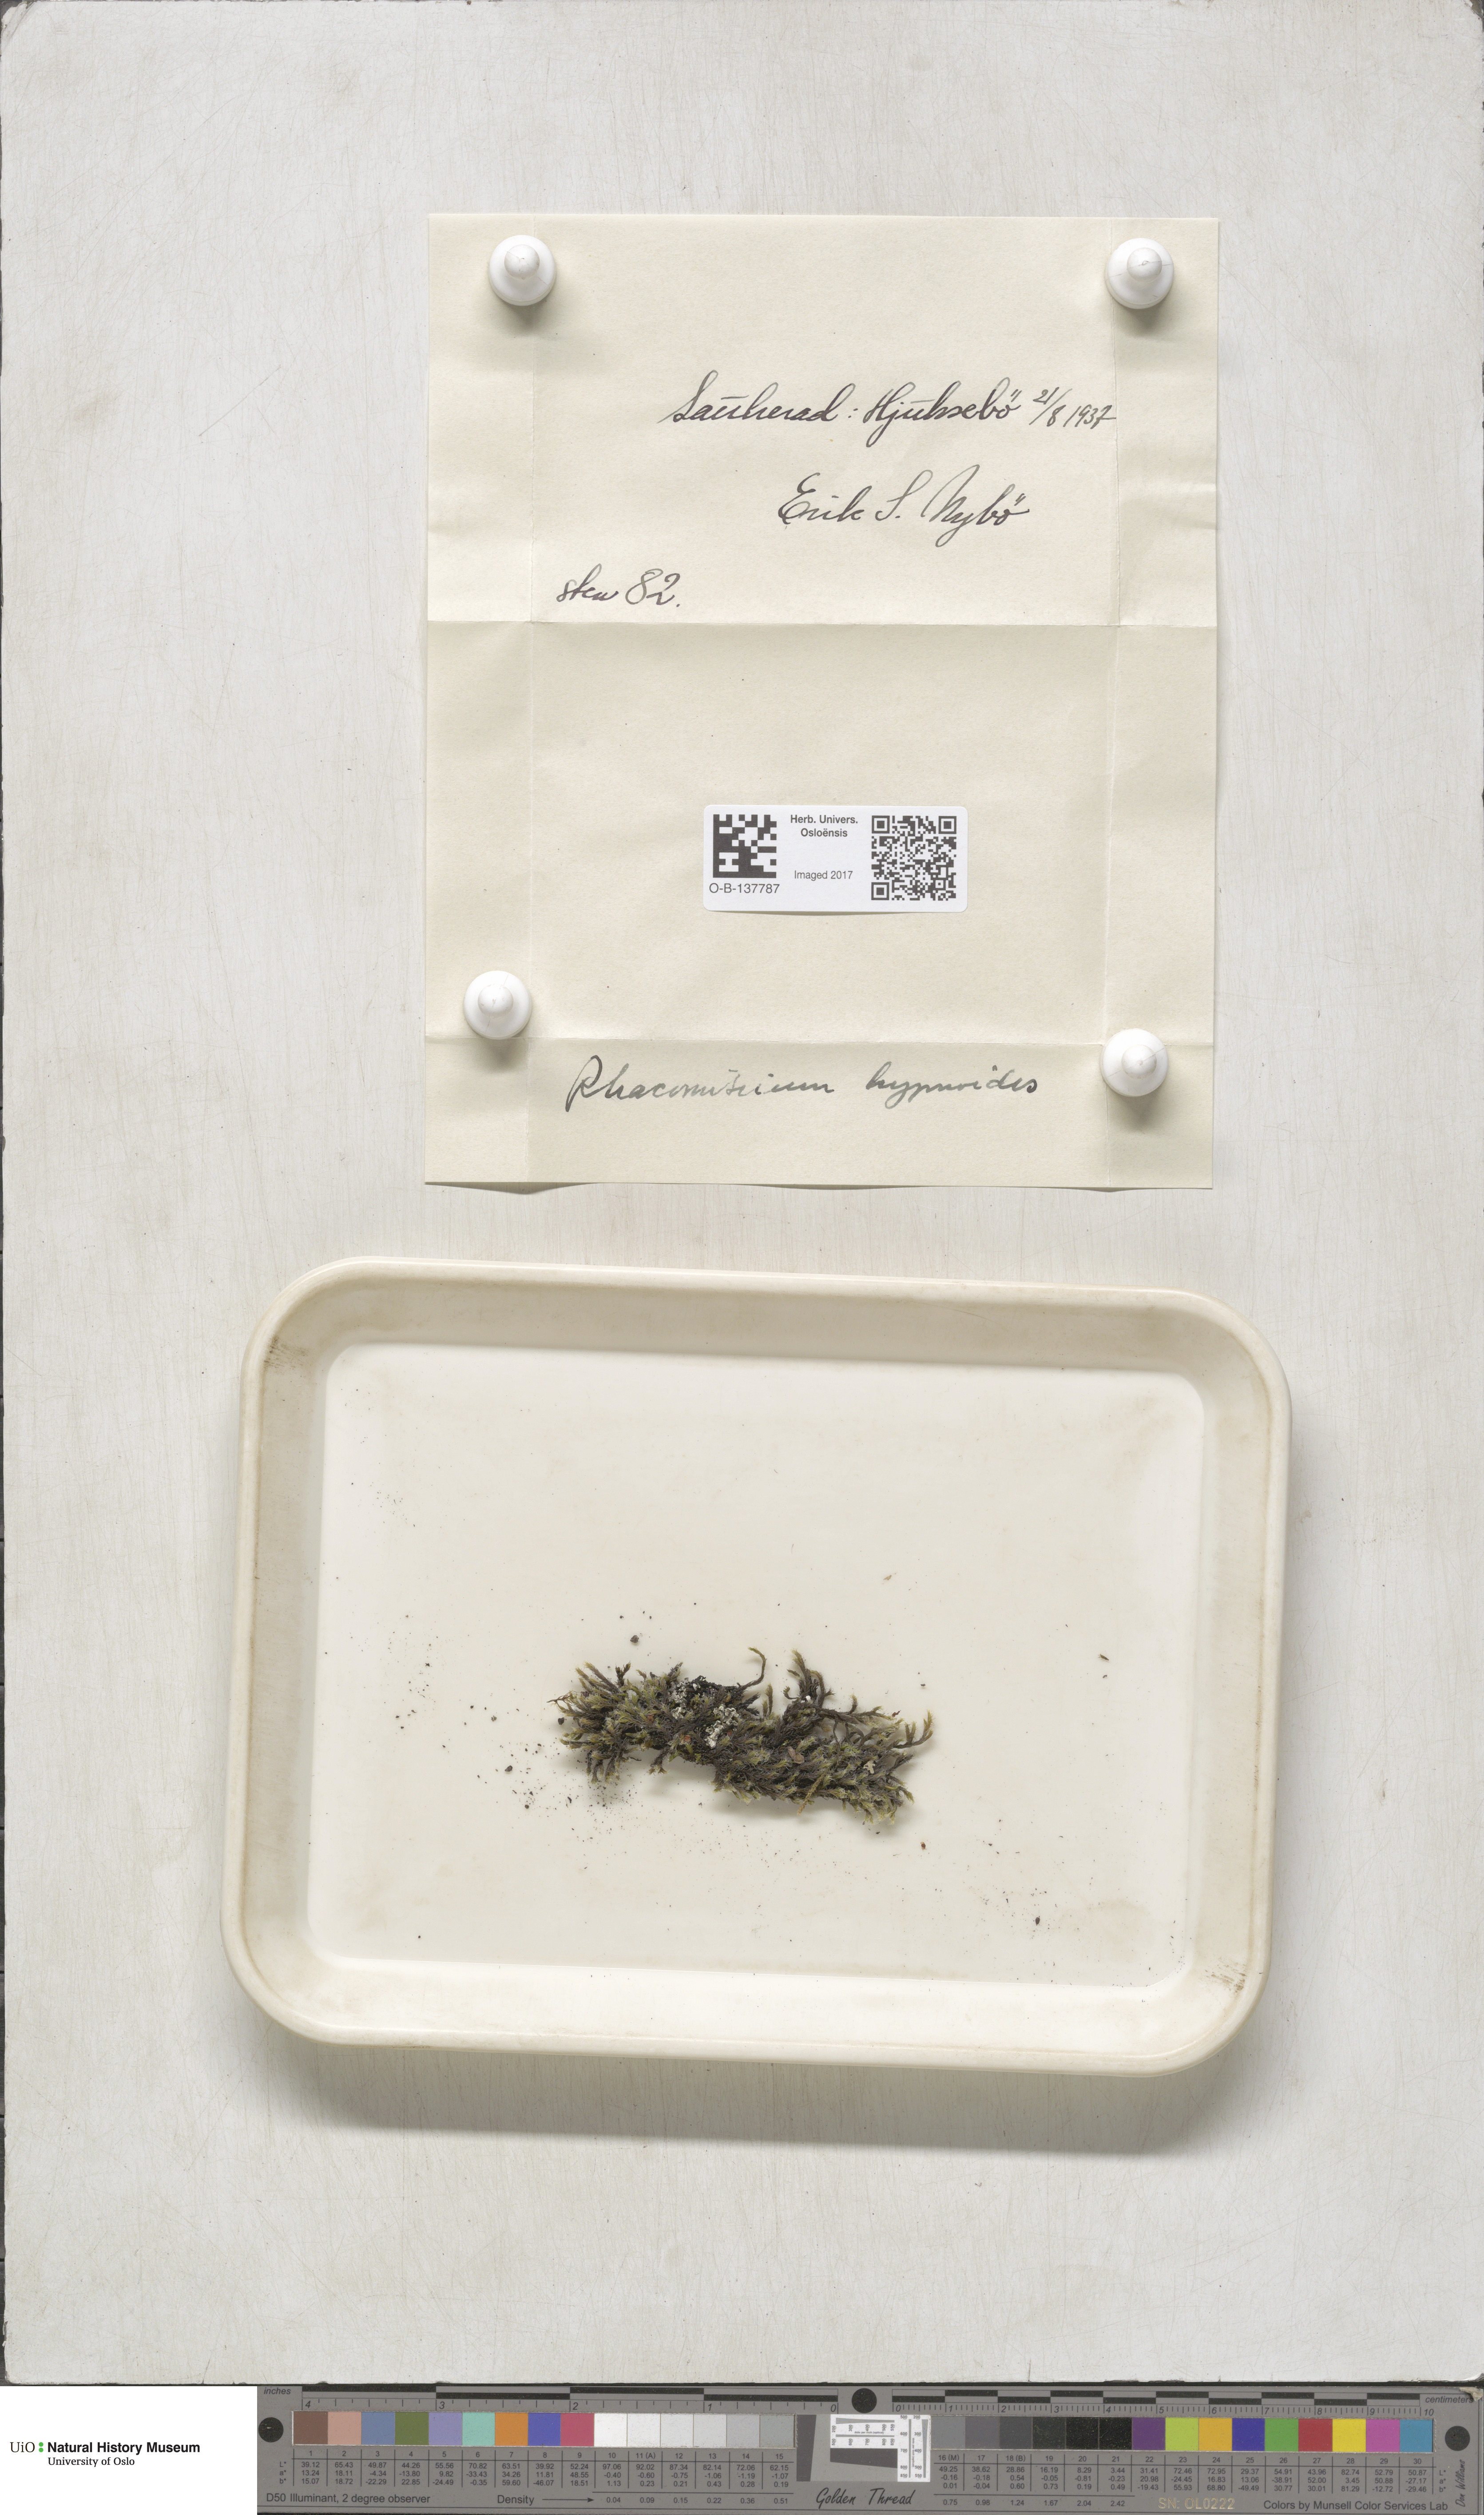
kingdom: Plantae
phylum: Bryophyta
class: Bryopsida
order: Grimmiales
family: Grimmiaceae
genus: Racomitrium
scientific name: Racomitrium lanuginosum
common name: Hoary rock moss
